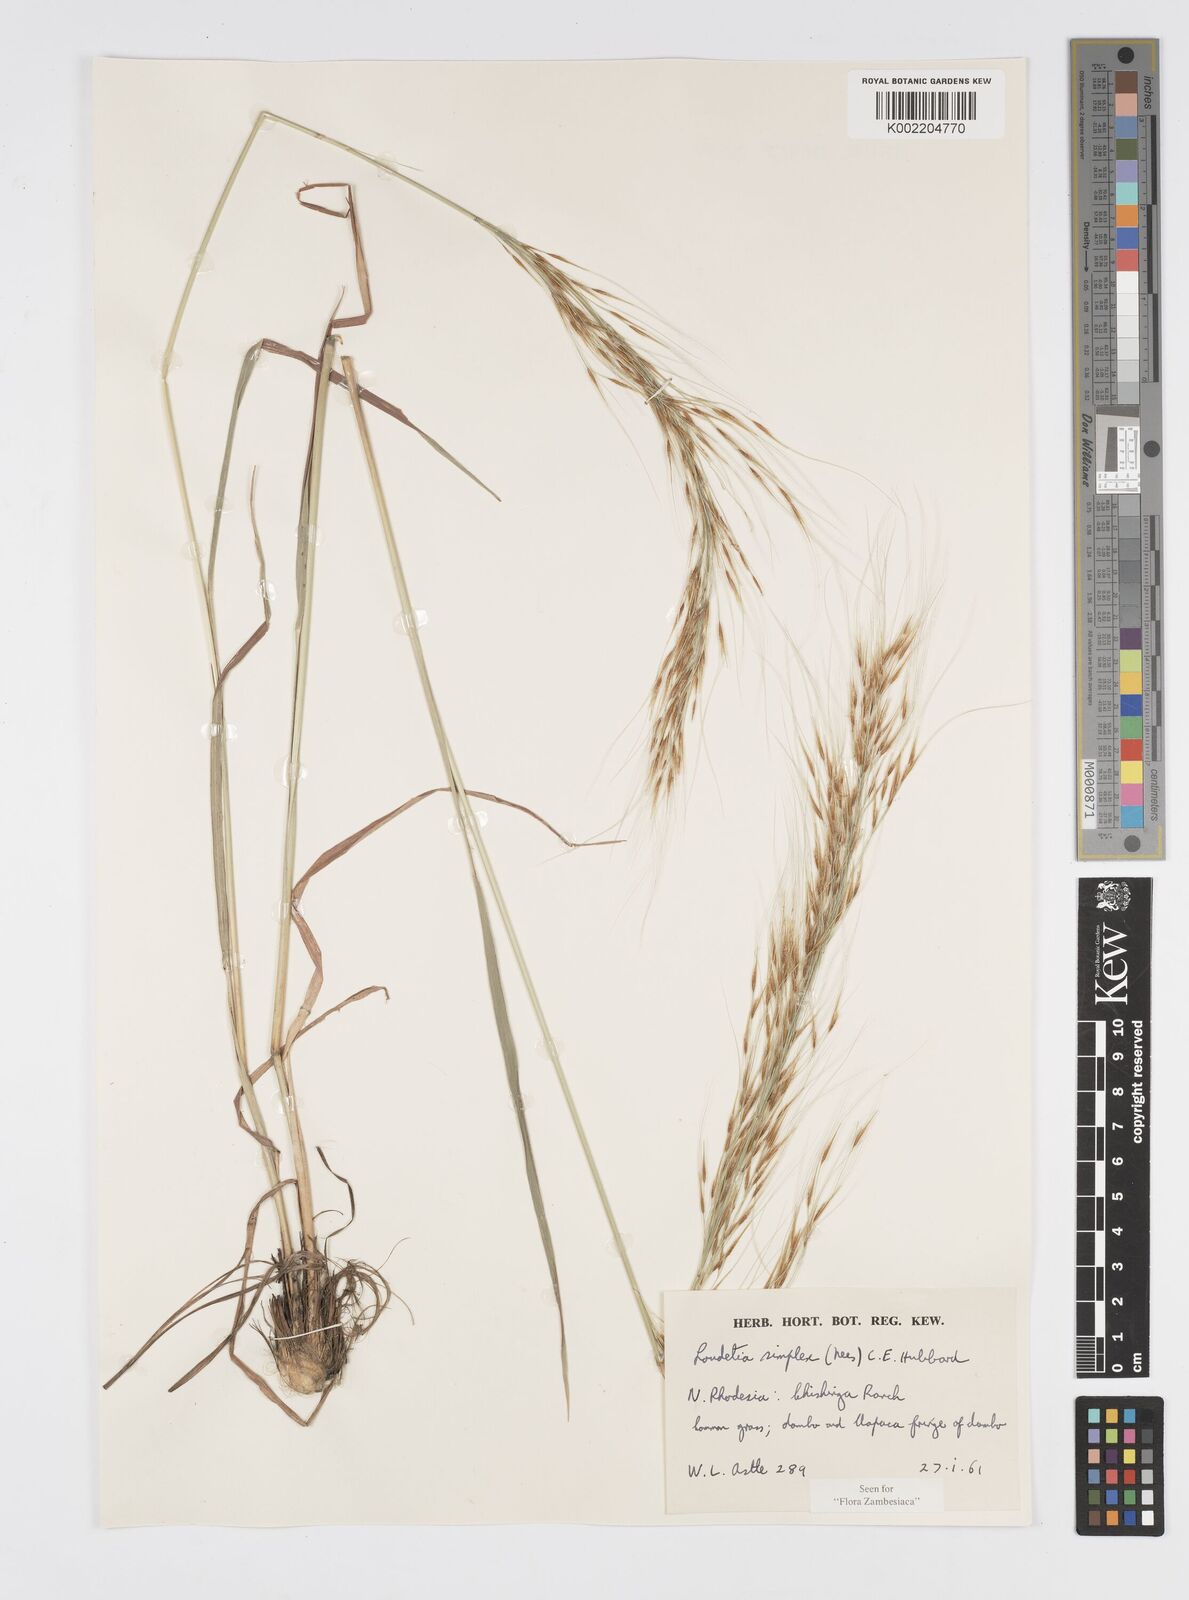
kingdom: Plantae
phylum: Tracheophyta
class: Liliopsida
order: Poales
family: Poaceae
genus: Loudetia
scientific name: Loudetia simplex
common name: Common russet grass
